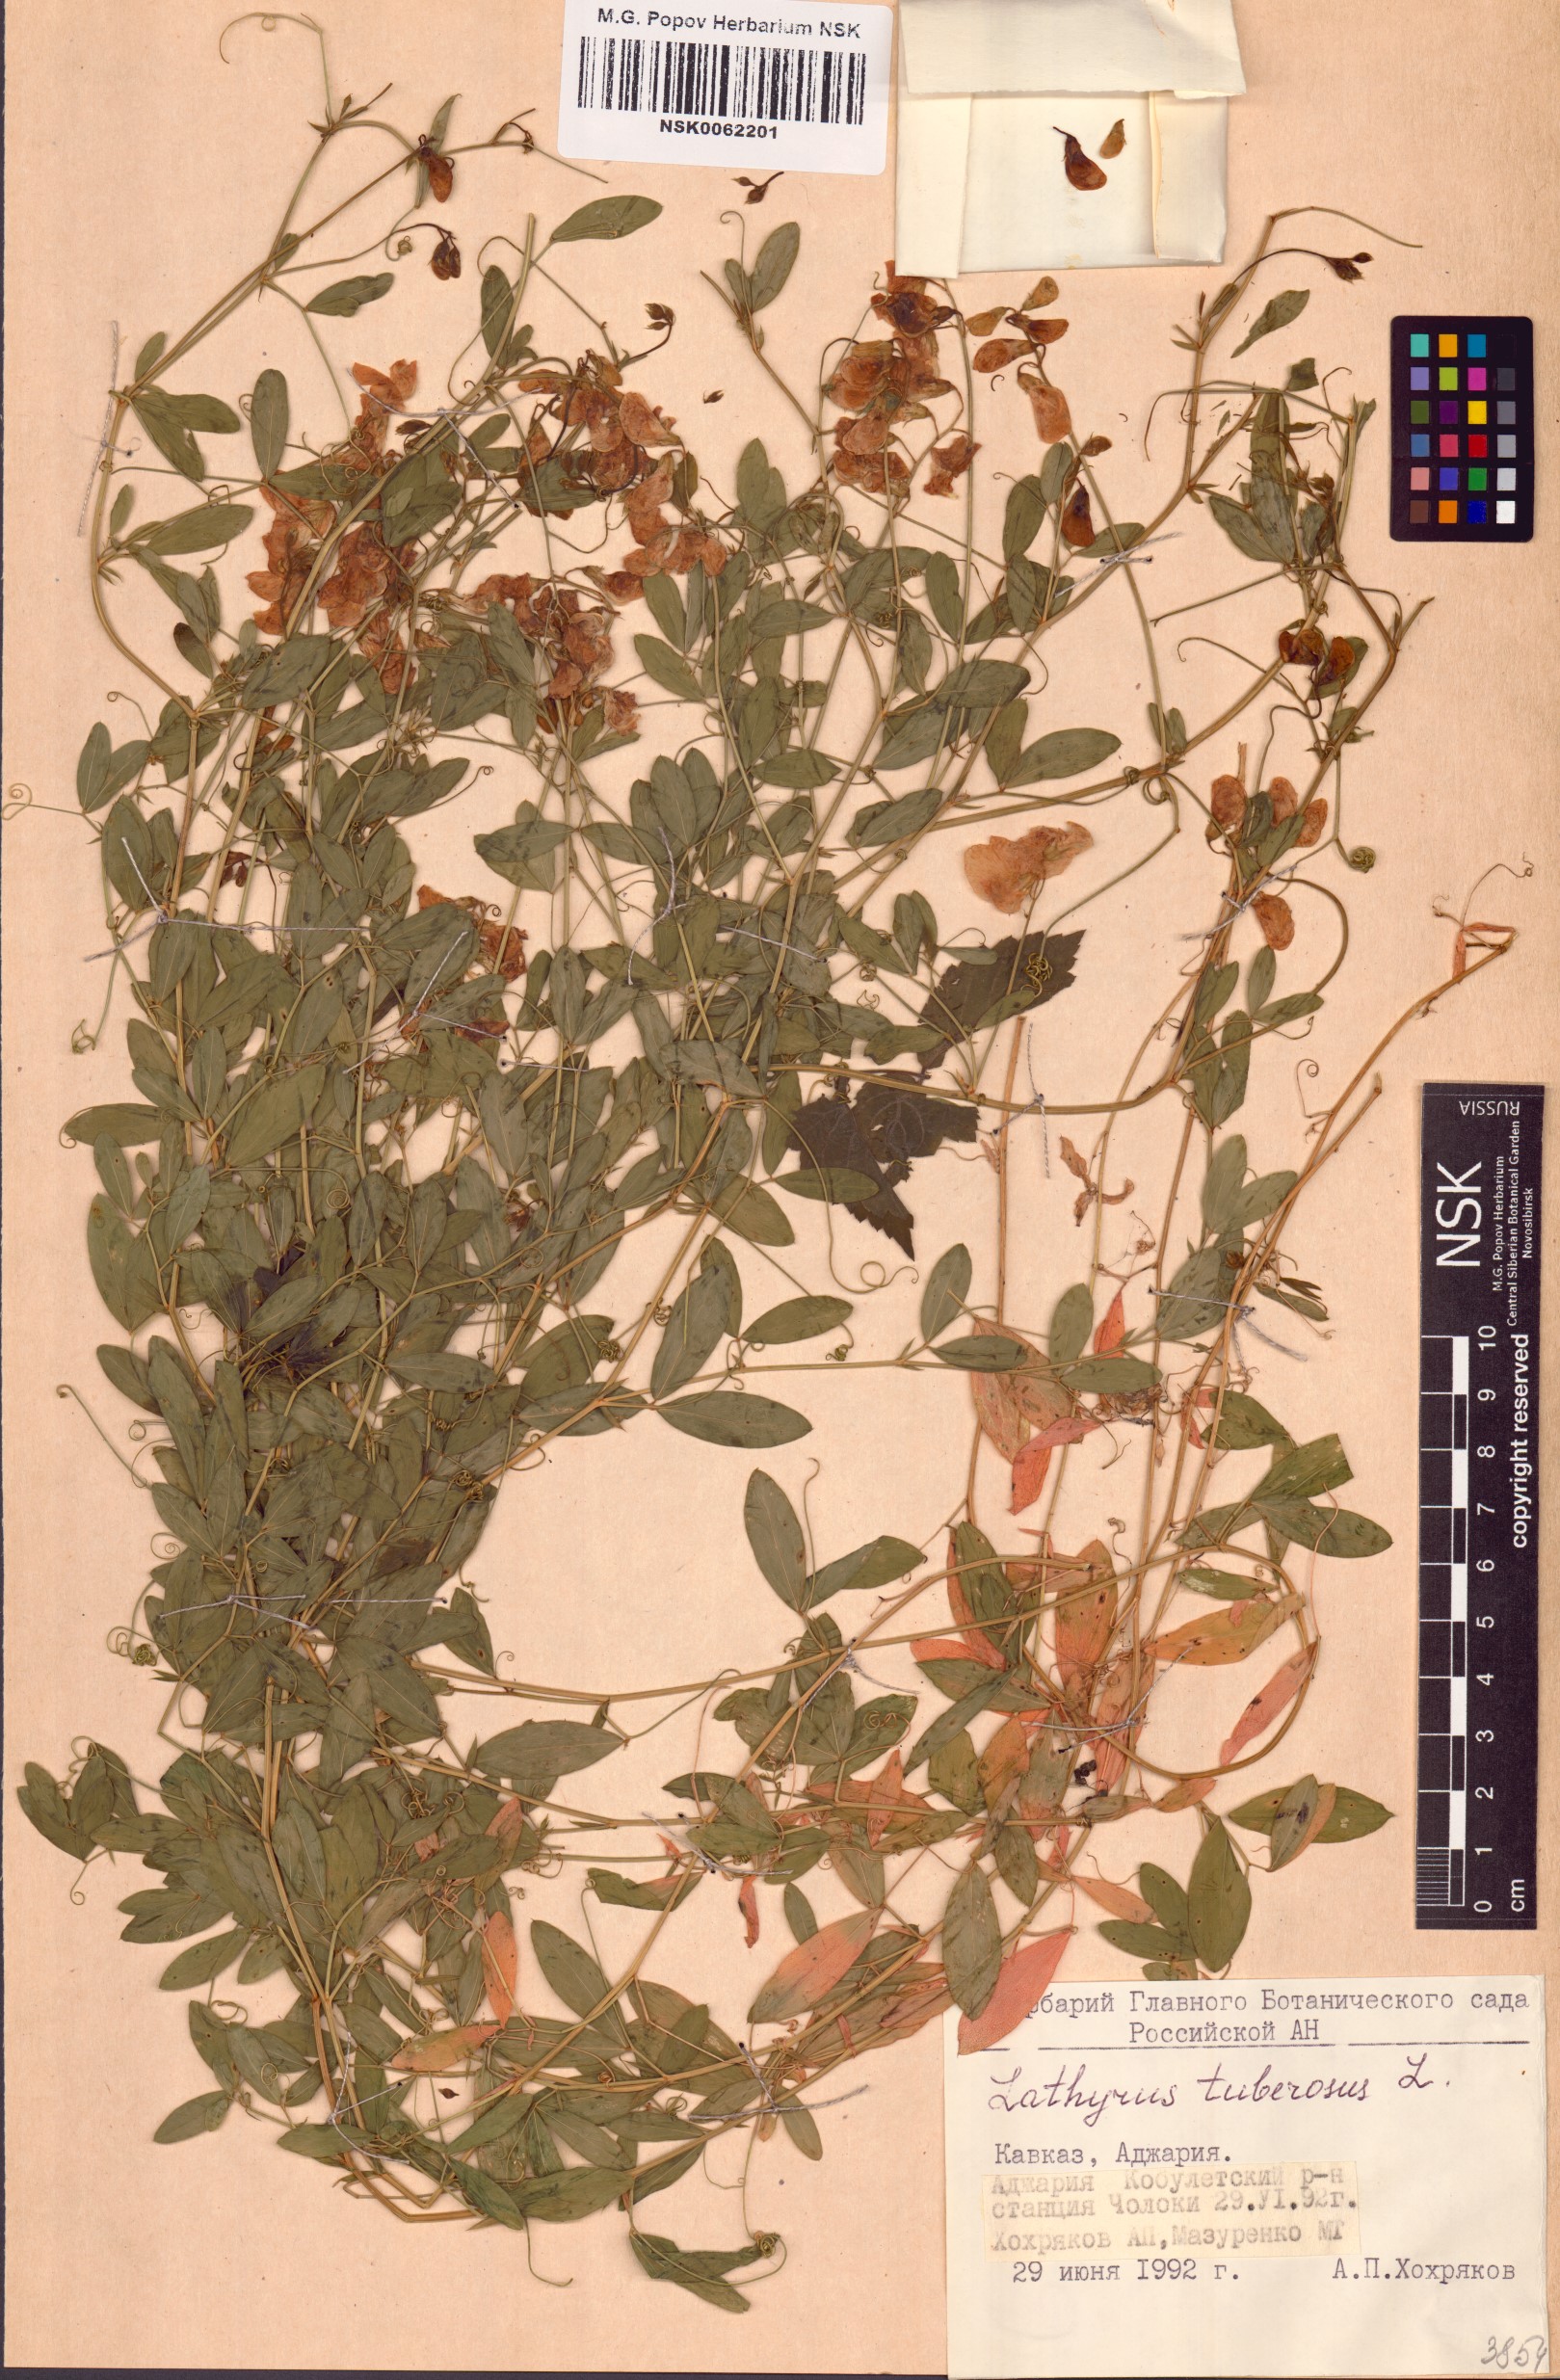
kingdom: Plantae
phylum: Tracheophyta
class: Magnoliopsida
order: Fabales
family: Fabaceae
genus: Lathyrus
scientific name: Lathyrus tuberosus
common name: Tuberous pea
